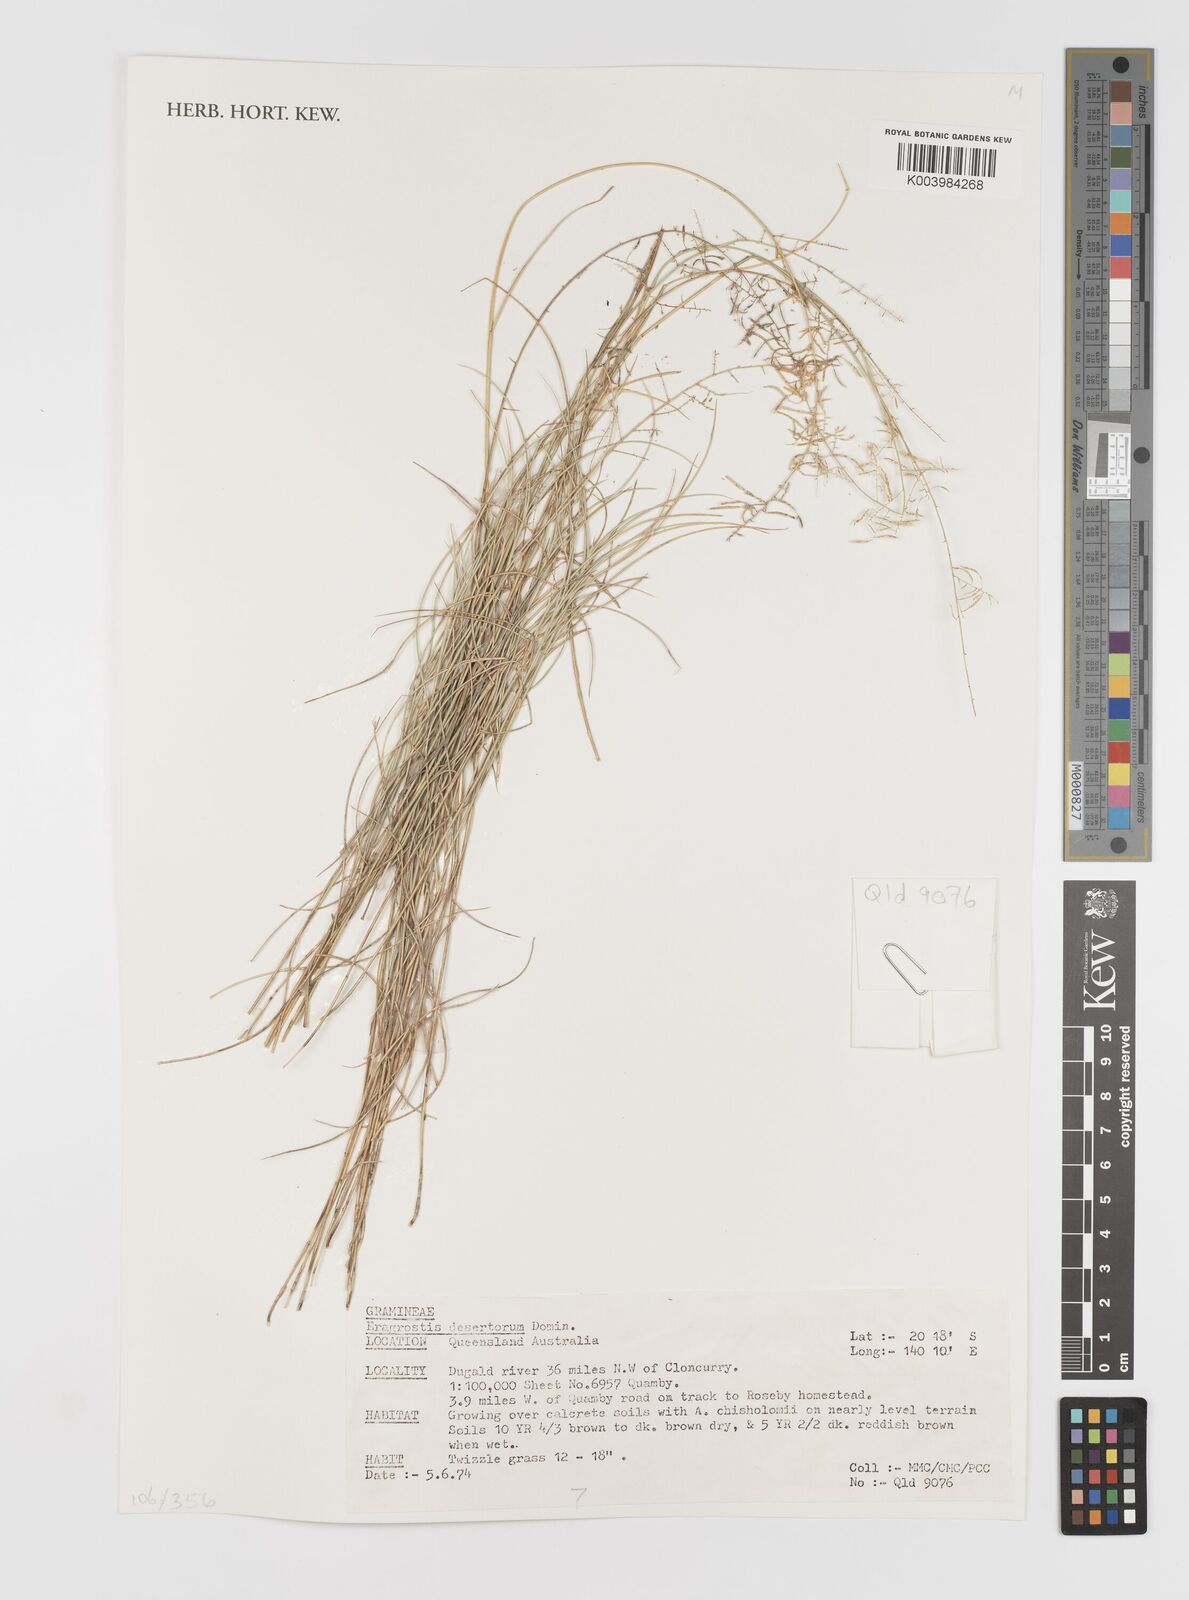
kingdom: Plantae
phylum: Tracheophyta
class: Liliopsida
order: Poales
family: Poaceae
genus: Eragrostis
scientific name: Eragrostis desertorum
